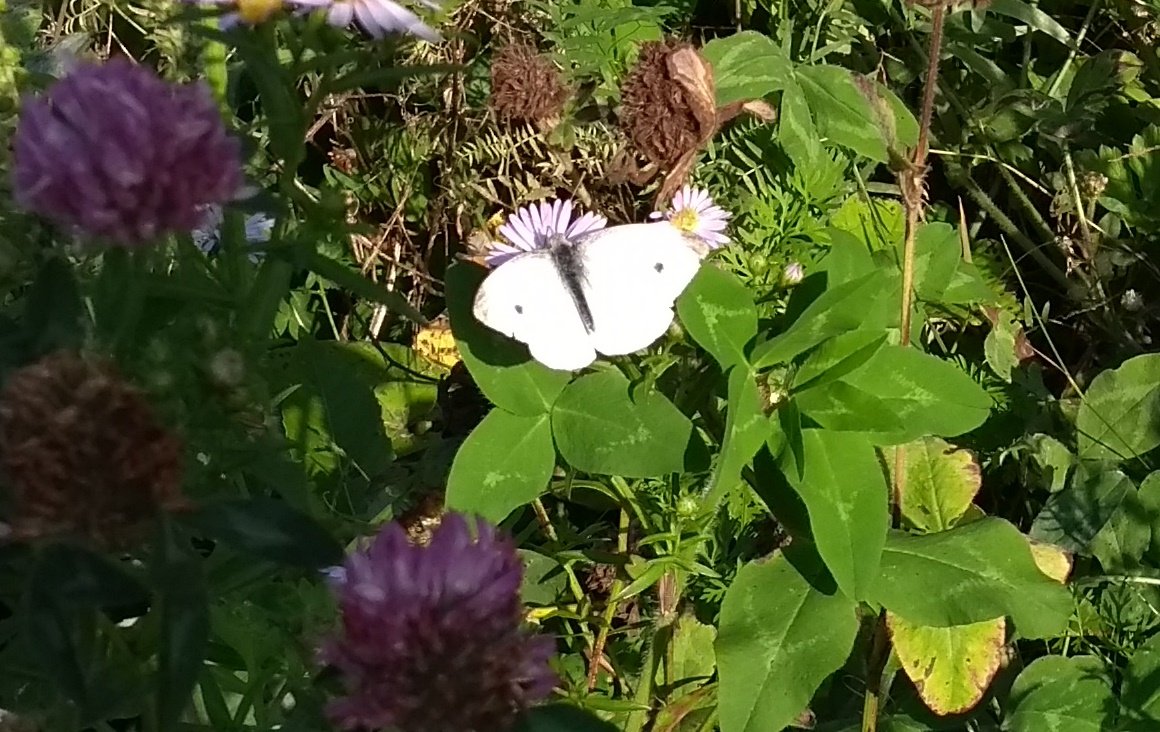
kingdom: Animalia
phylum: Arthropoda
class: Insecta
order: Lepidoptera
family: Pieridae
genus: Pieris
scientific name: Pieris rapae
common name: Cabbage White
